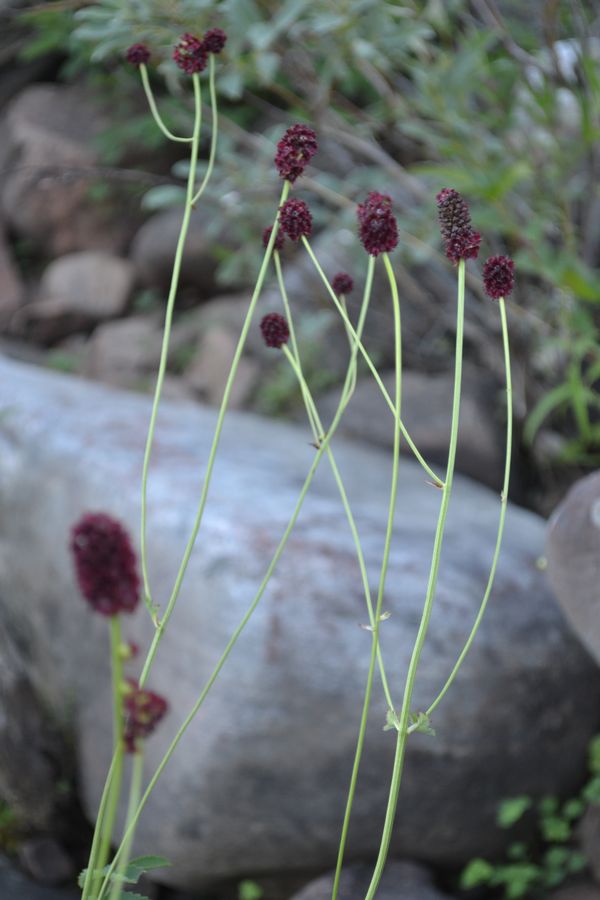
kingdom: Plantae
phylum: Tracheophyta
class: Magnoliopsida
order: Rosales
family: Rosaceae
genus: Sanguisorba
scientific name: Sanguisorba officinalis
